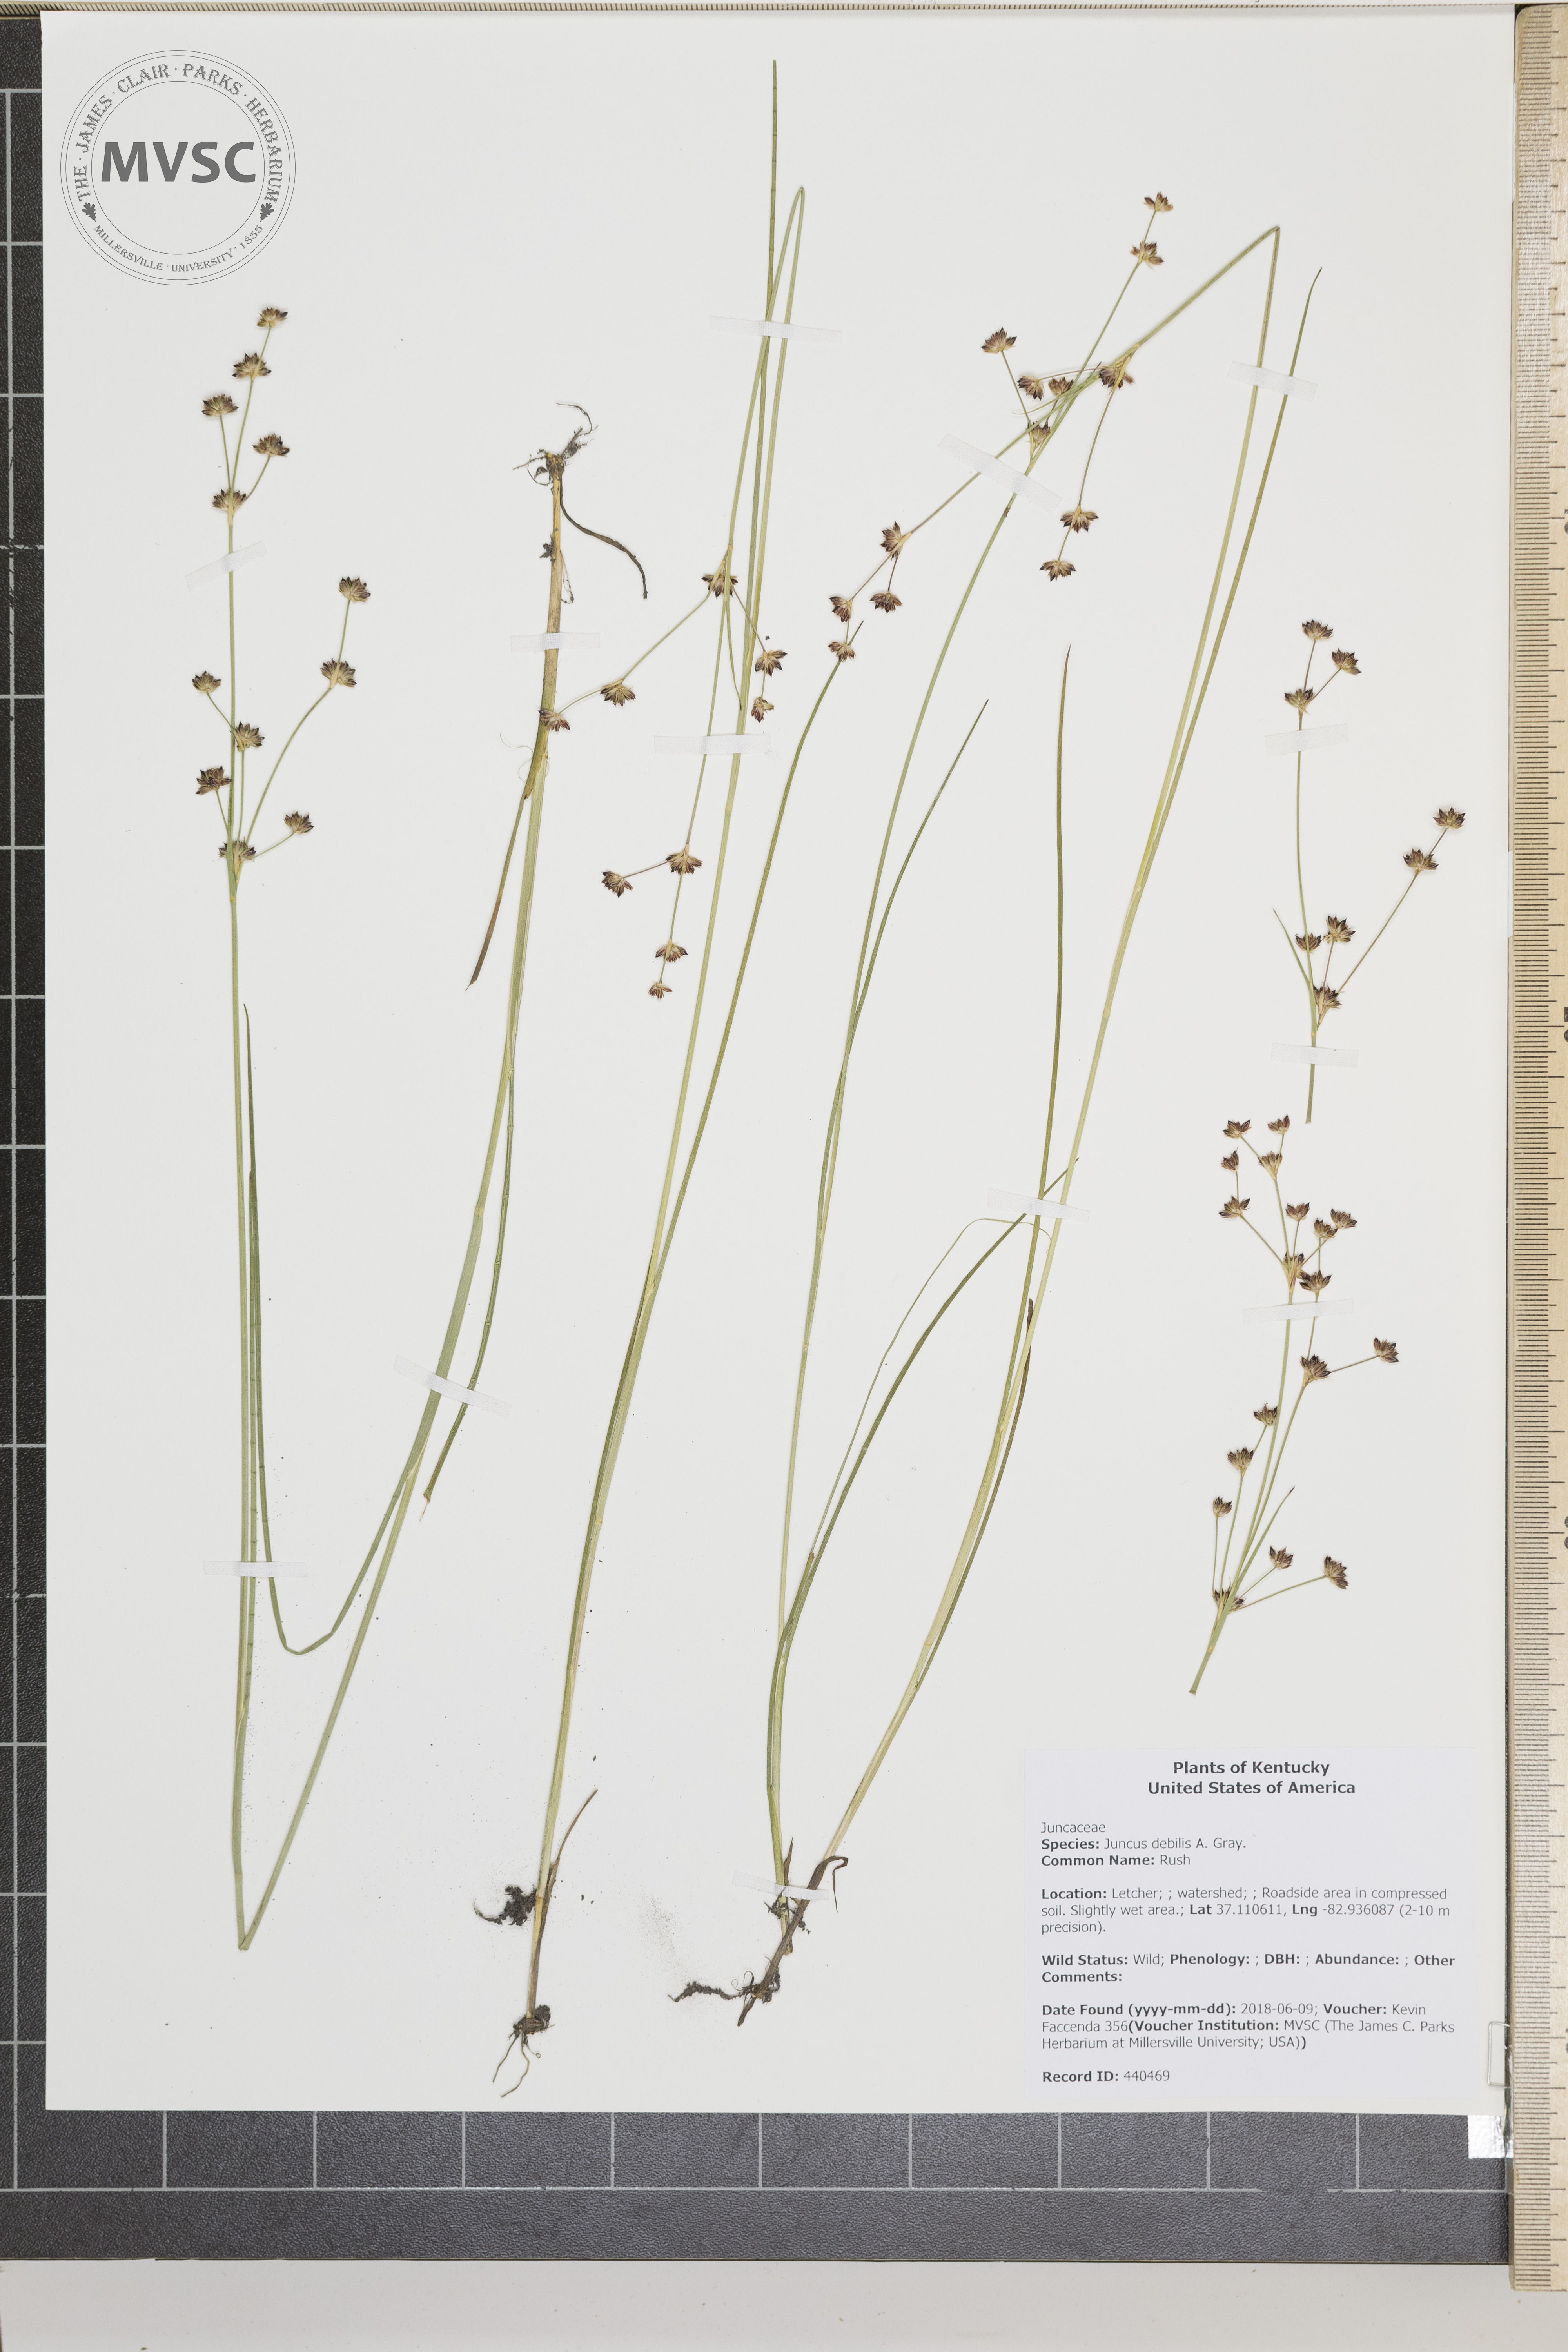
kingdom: Plantae
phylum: Tracheophyta
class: Liliopsida
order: Poales
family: Juncaceae
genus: Juncus
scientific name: Juncus debilis
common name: Rush
